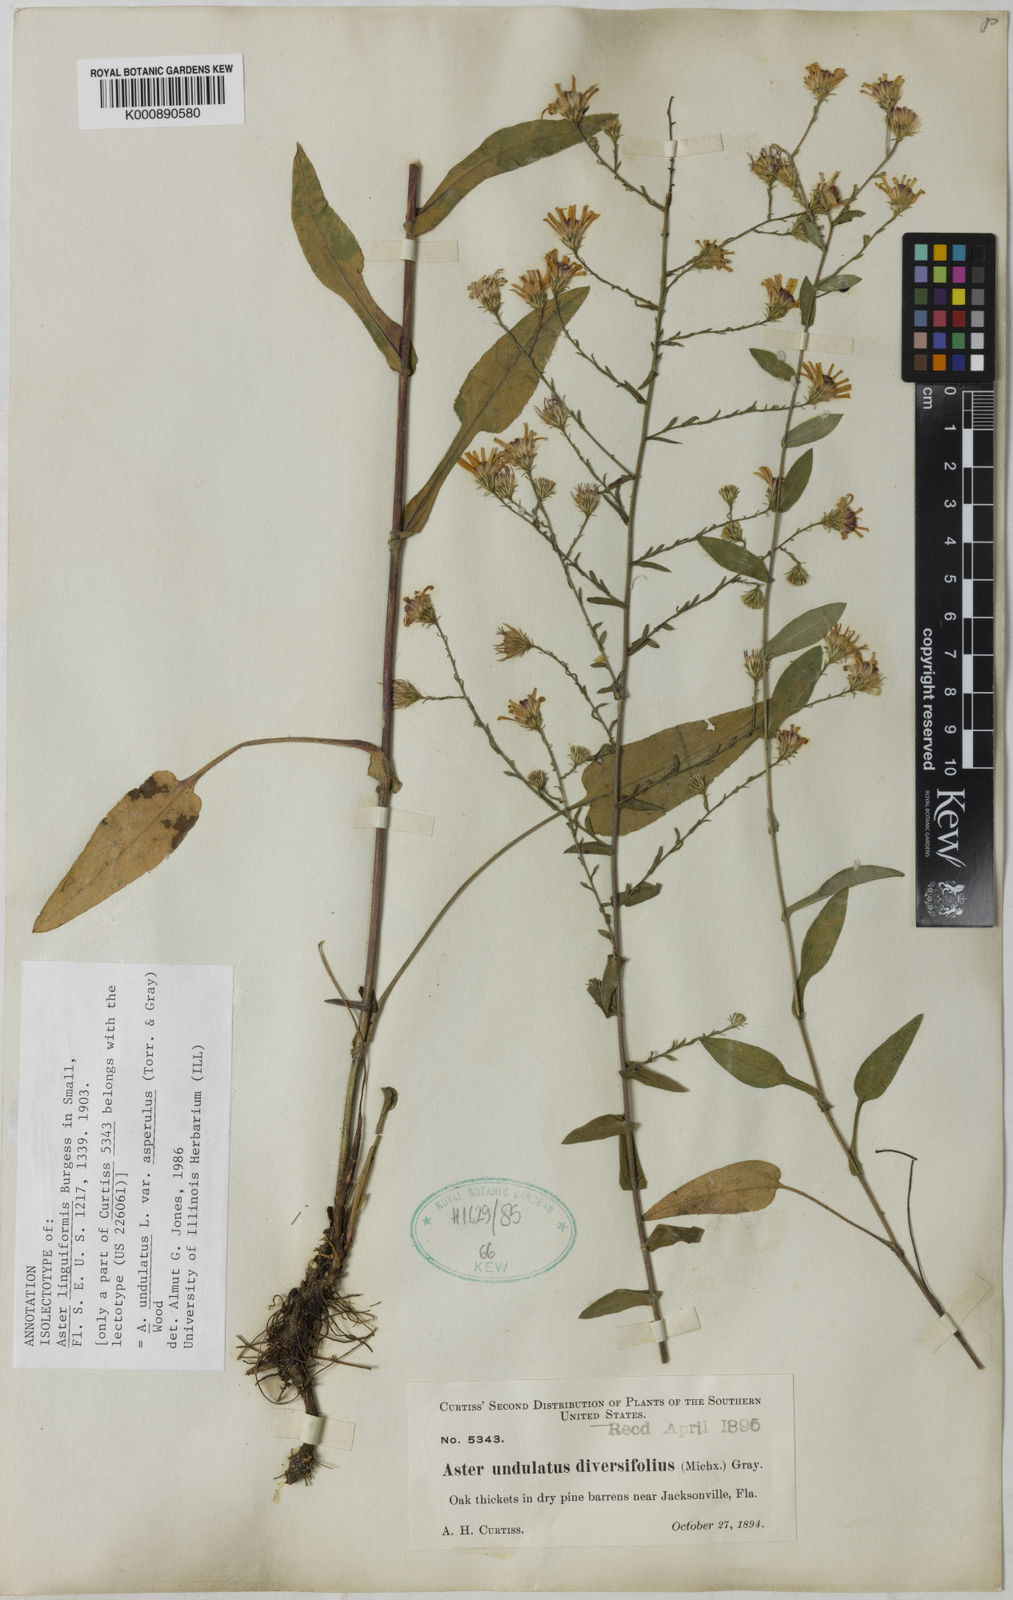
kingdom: Plantae
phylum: Tracheophyta
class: Magnoliopsida
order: Asterales
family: Asteraceae
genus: Symphyotrichum
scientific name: Symphyotrichum undulatum
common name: Clasping heart-leaf aster
